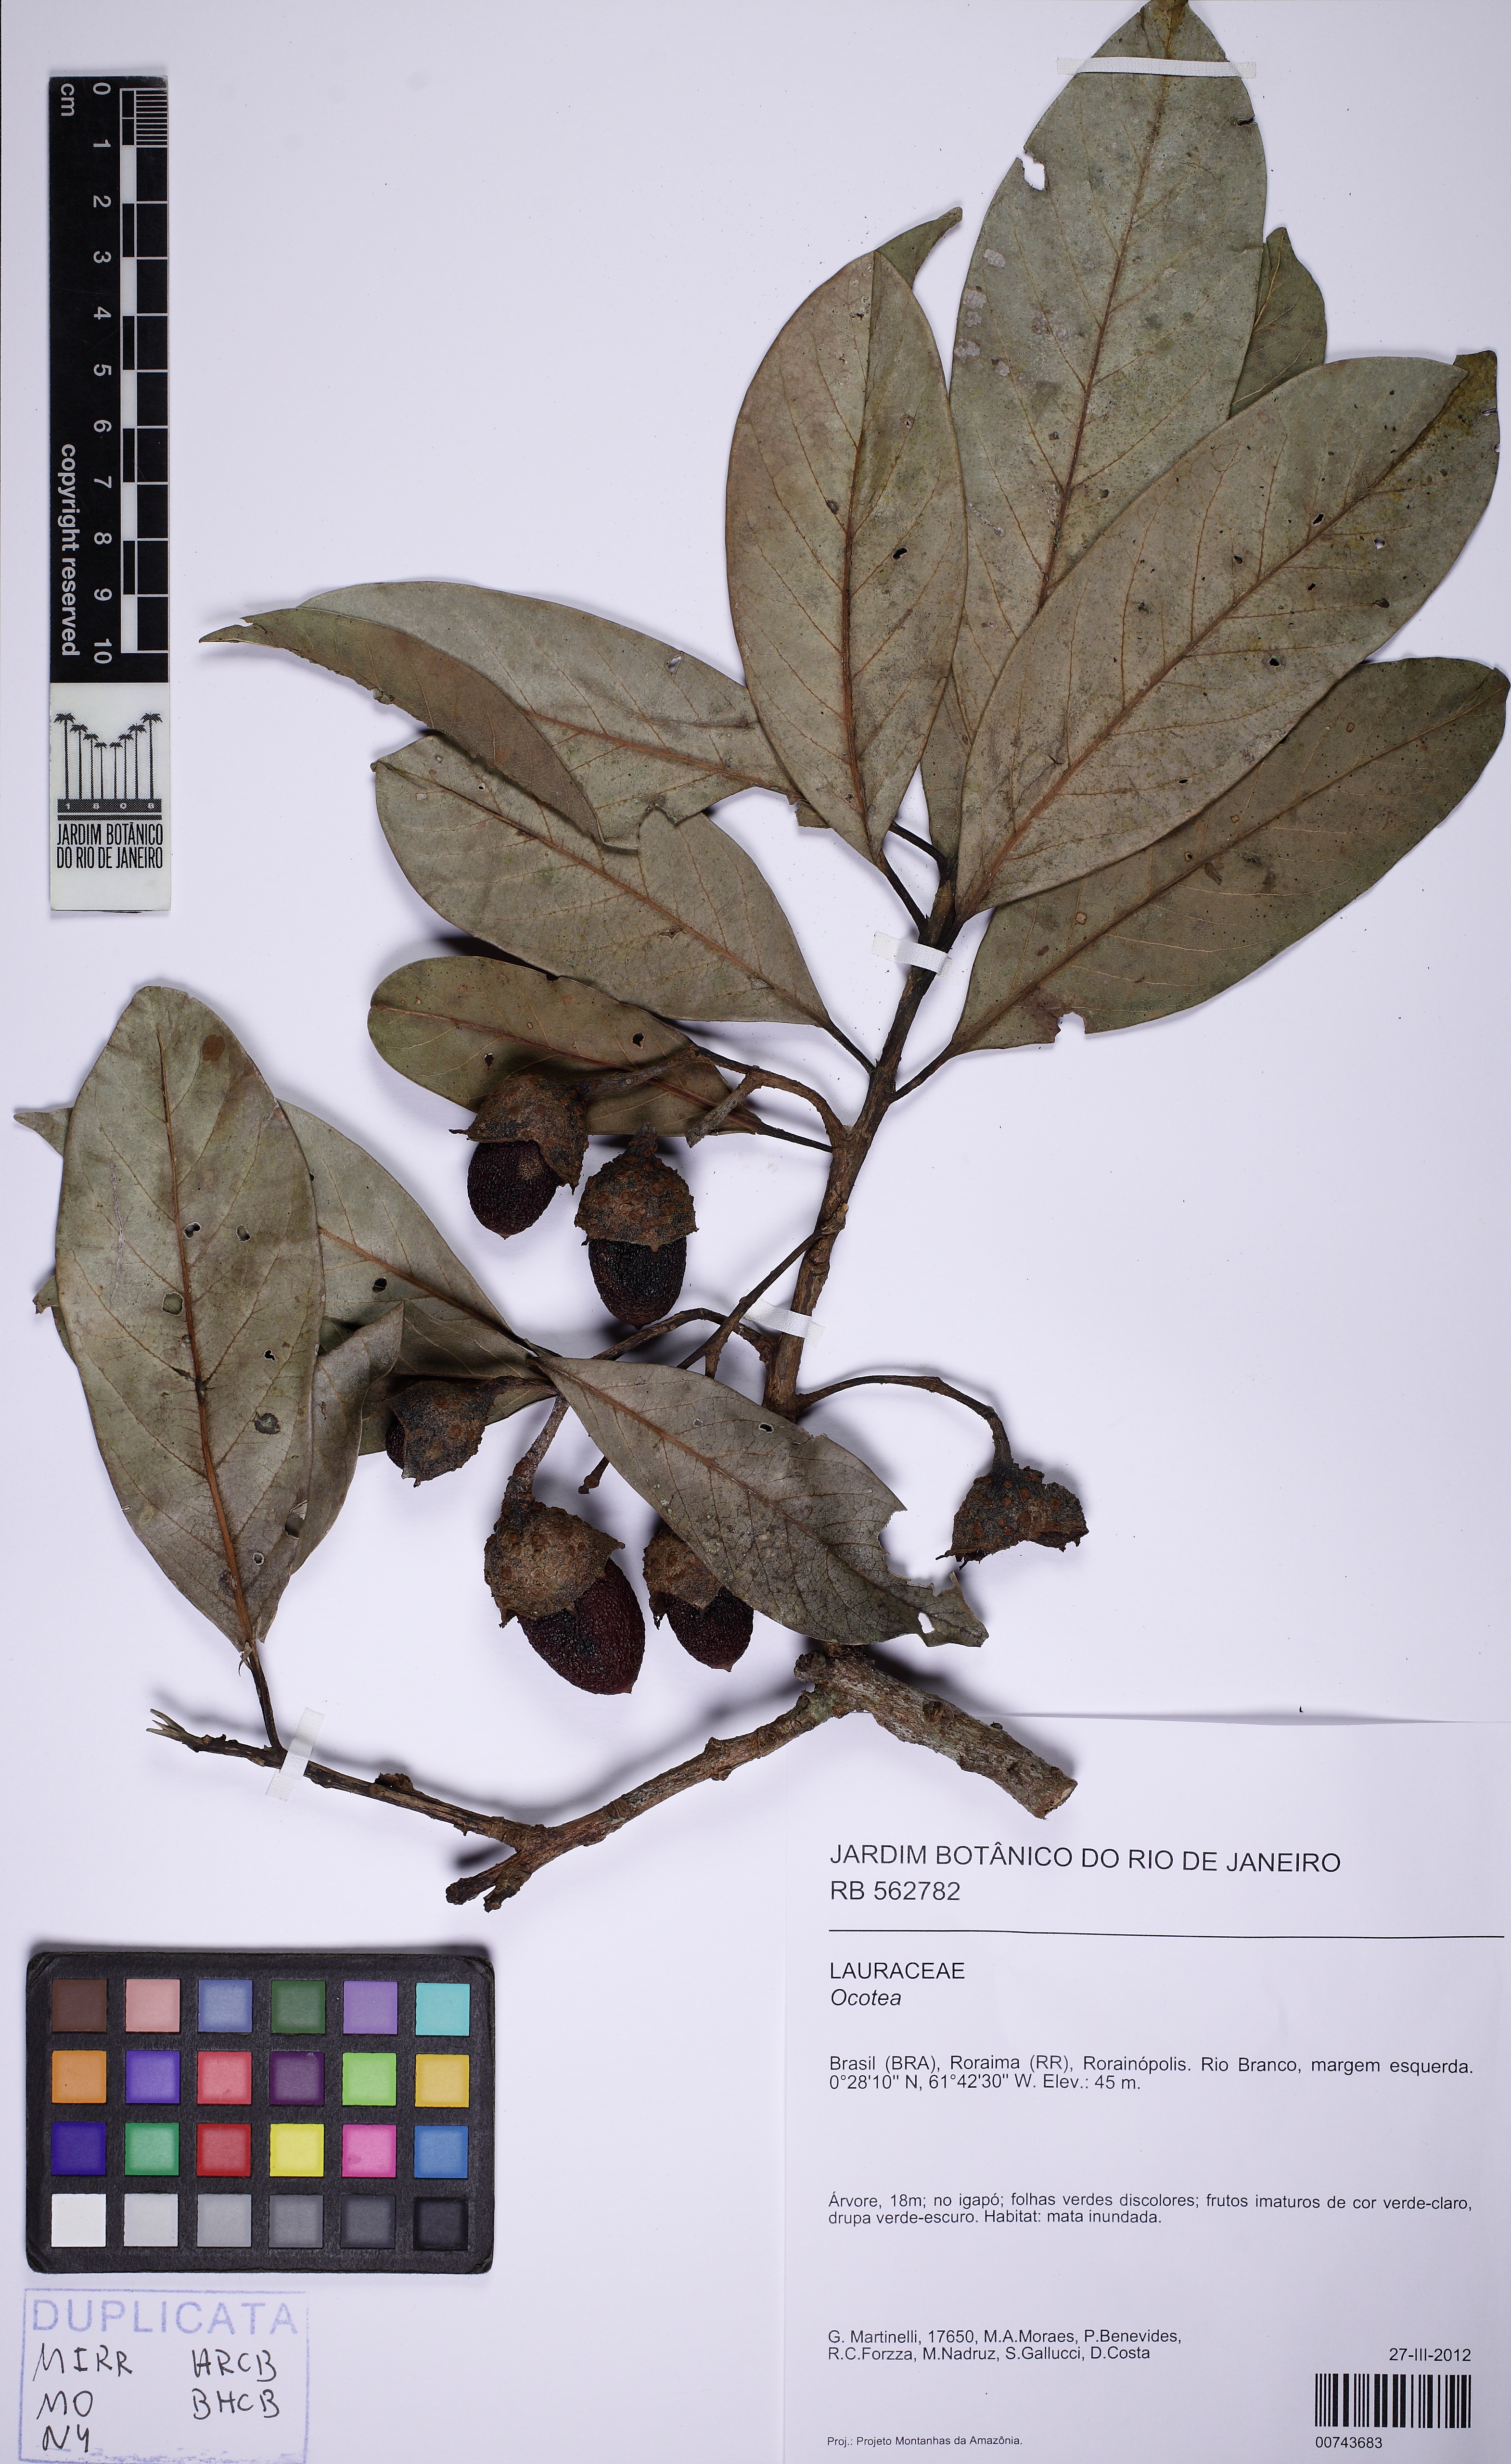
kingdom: Plantae
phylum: Tracheophyta
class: Magnoliopsida
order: Laurales
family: Lauraceae
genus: Ocotea
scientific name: Ocotea
